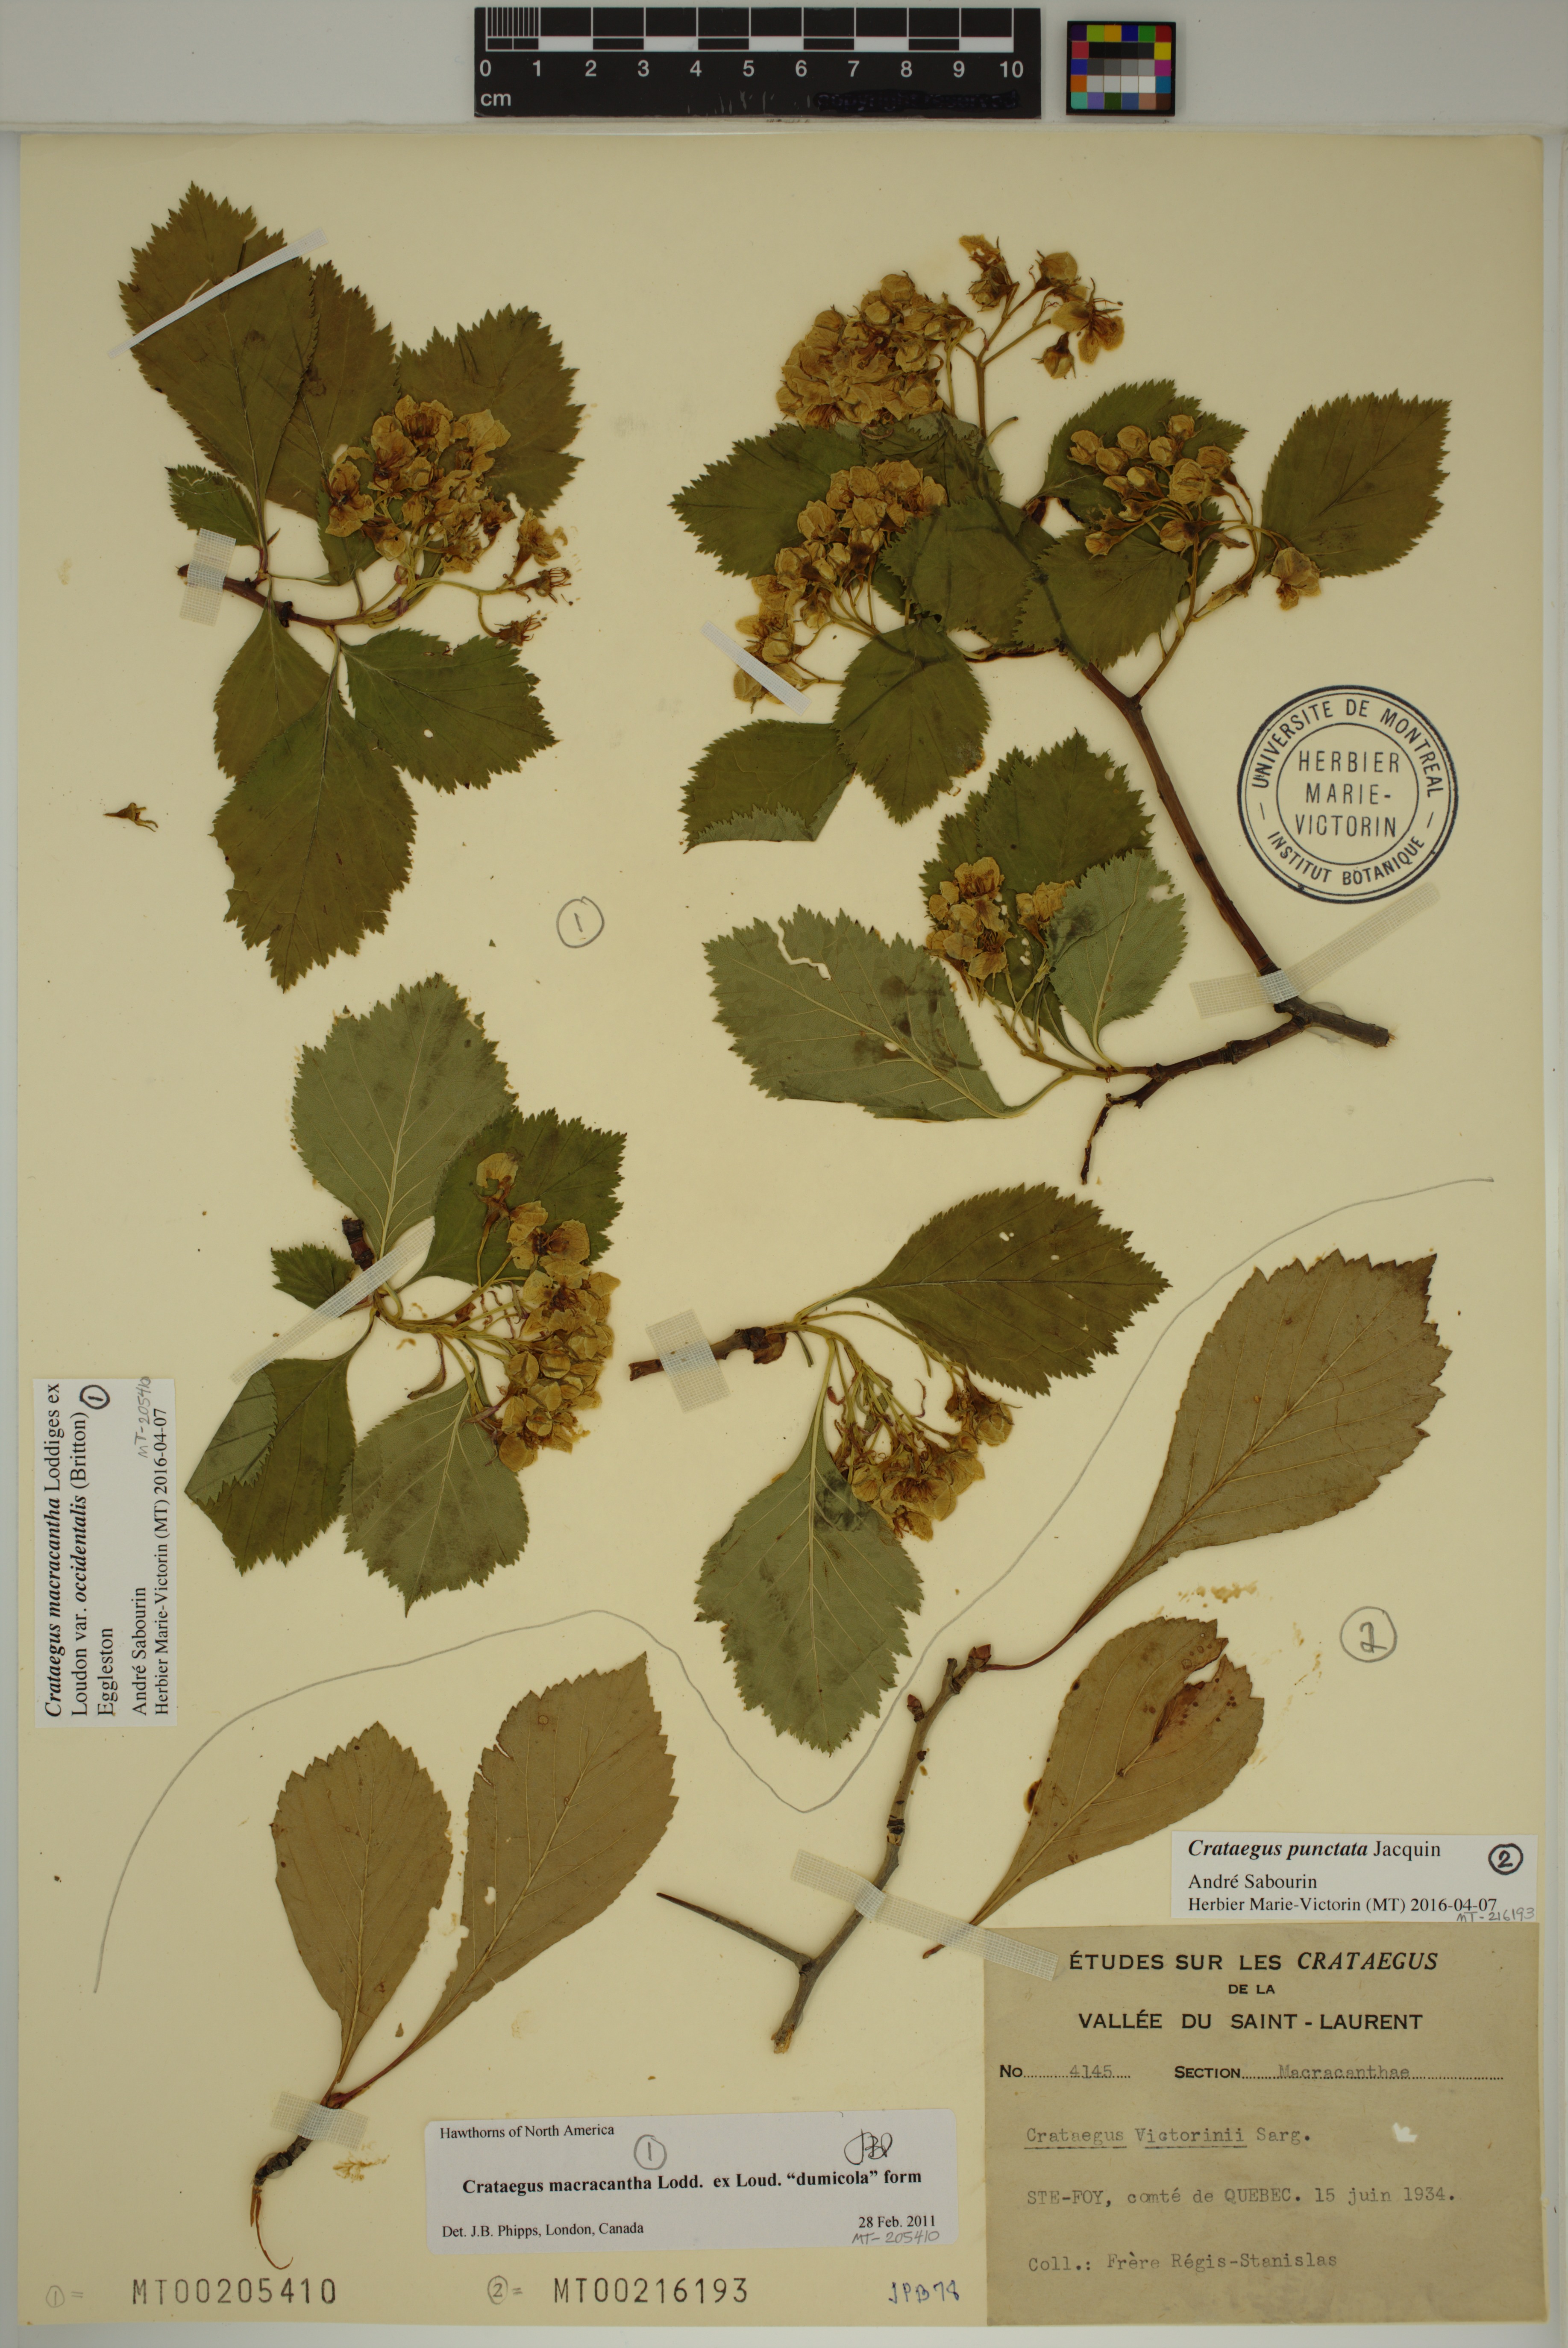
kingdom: Plantae
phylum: Tracheophyta
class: Magnoliopsida
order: Rosales
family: Rosaceae
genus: Crataegus
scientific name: Crataegus macracantha
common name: Large-thorn hawthorn
